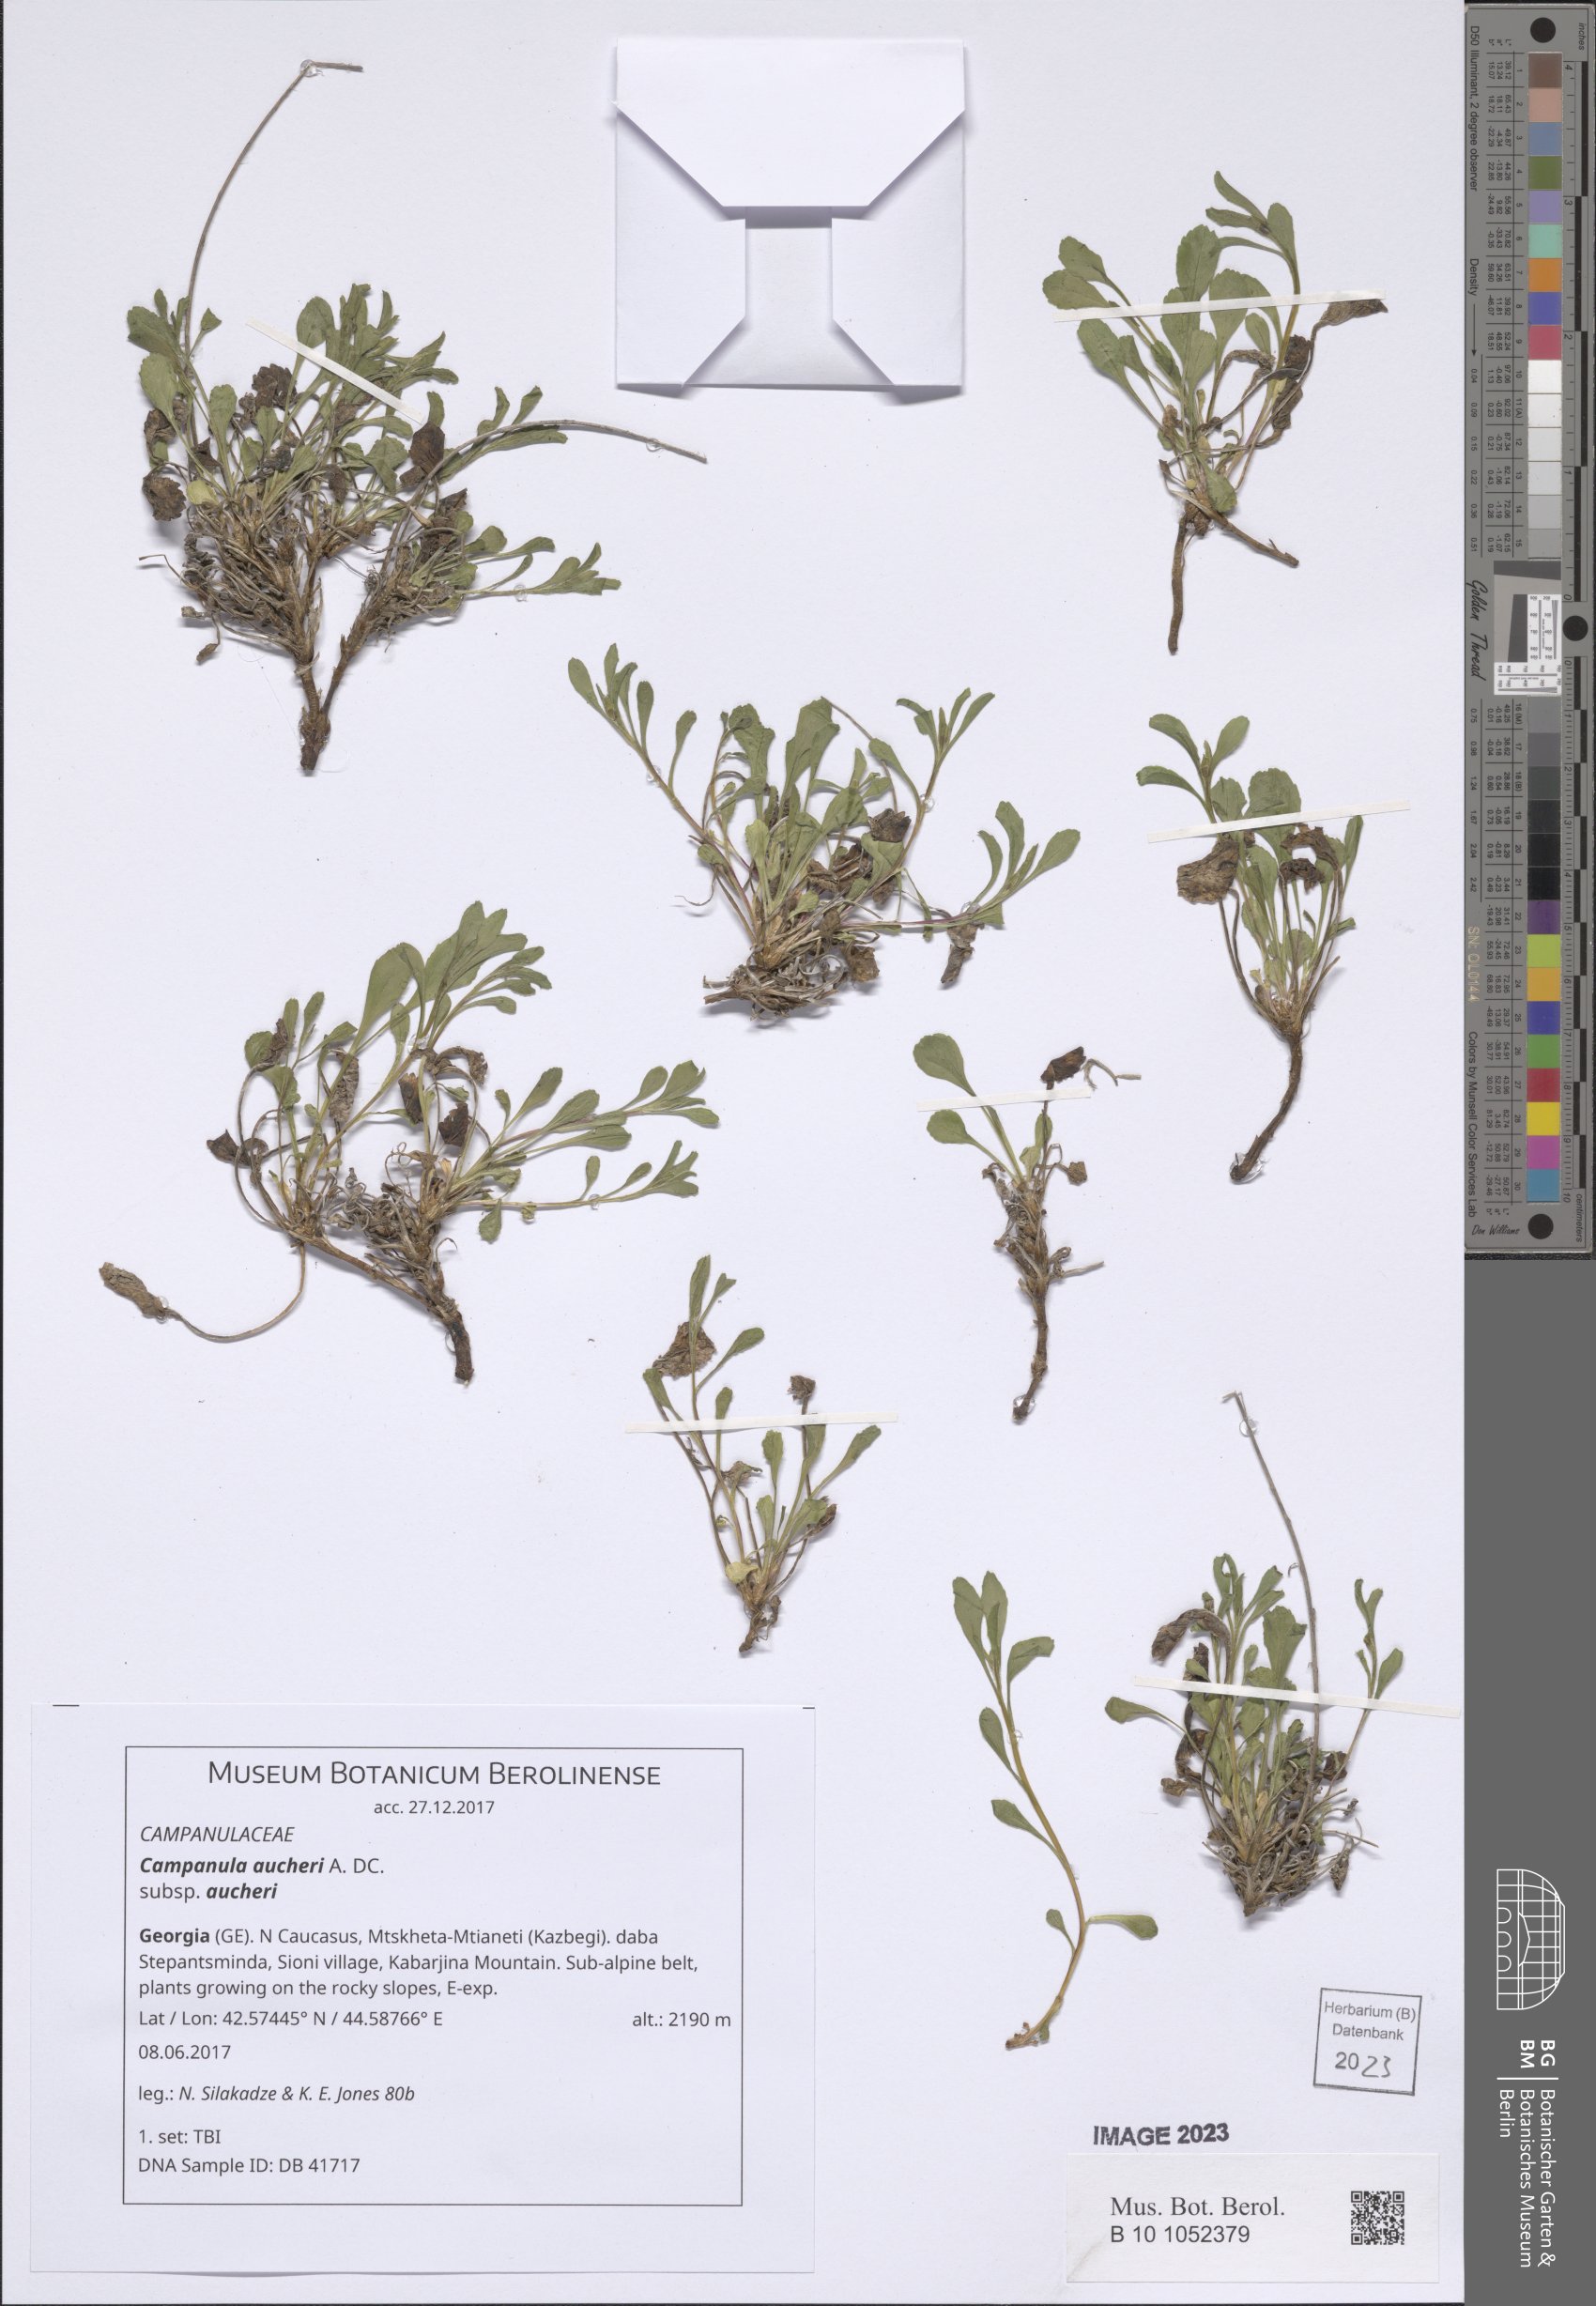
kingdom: Plantae
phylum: Tracheophyta
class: Magnoliopsida
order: Asterales
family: Campanulaceae
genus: Campanula
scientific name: Campanula saxifraga
